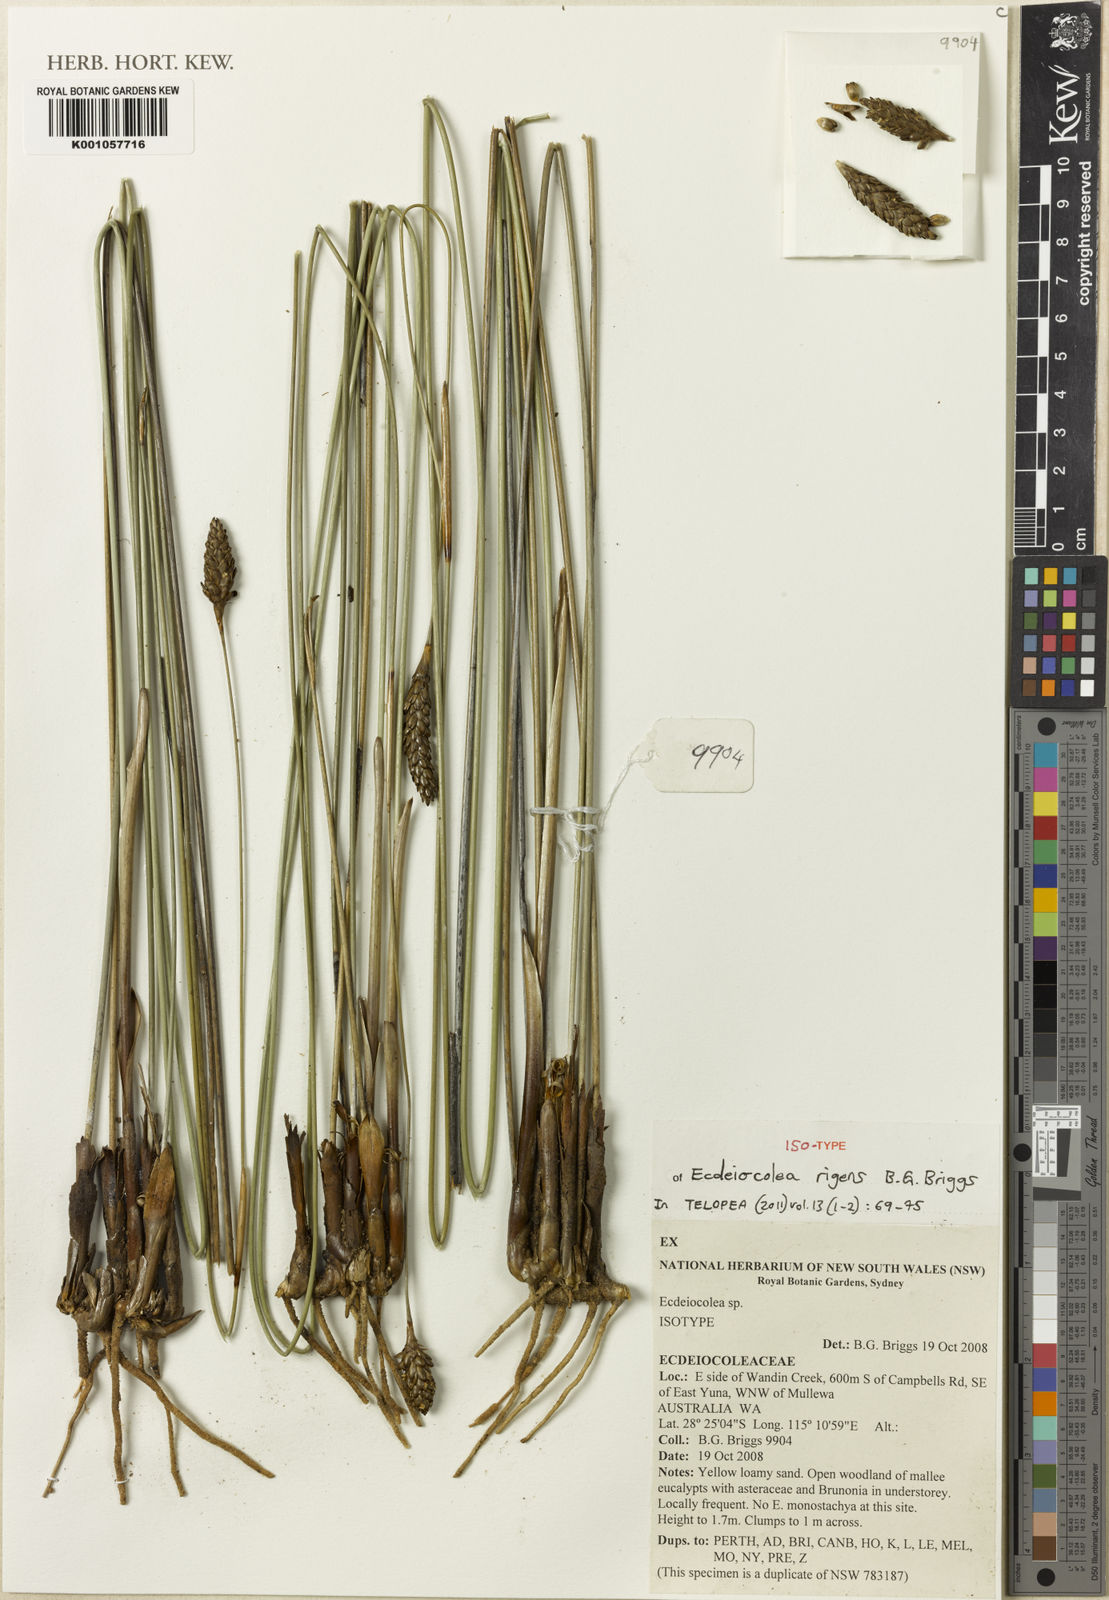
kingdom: Plantae
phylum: Tracheophyta
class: Liliopsida
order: Poales
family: Ecdeiocoleaceae
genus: Ecdeiocolea
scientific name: Ecdeiocolea rigens
